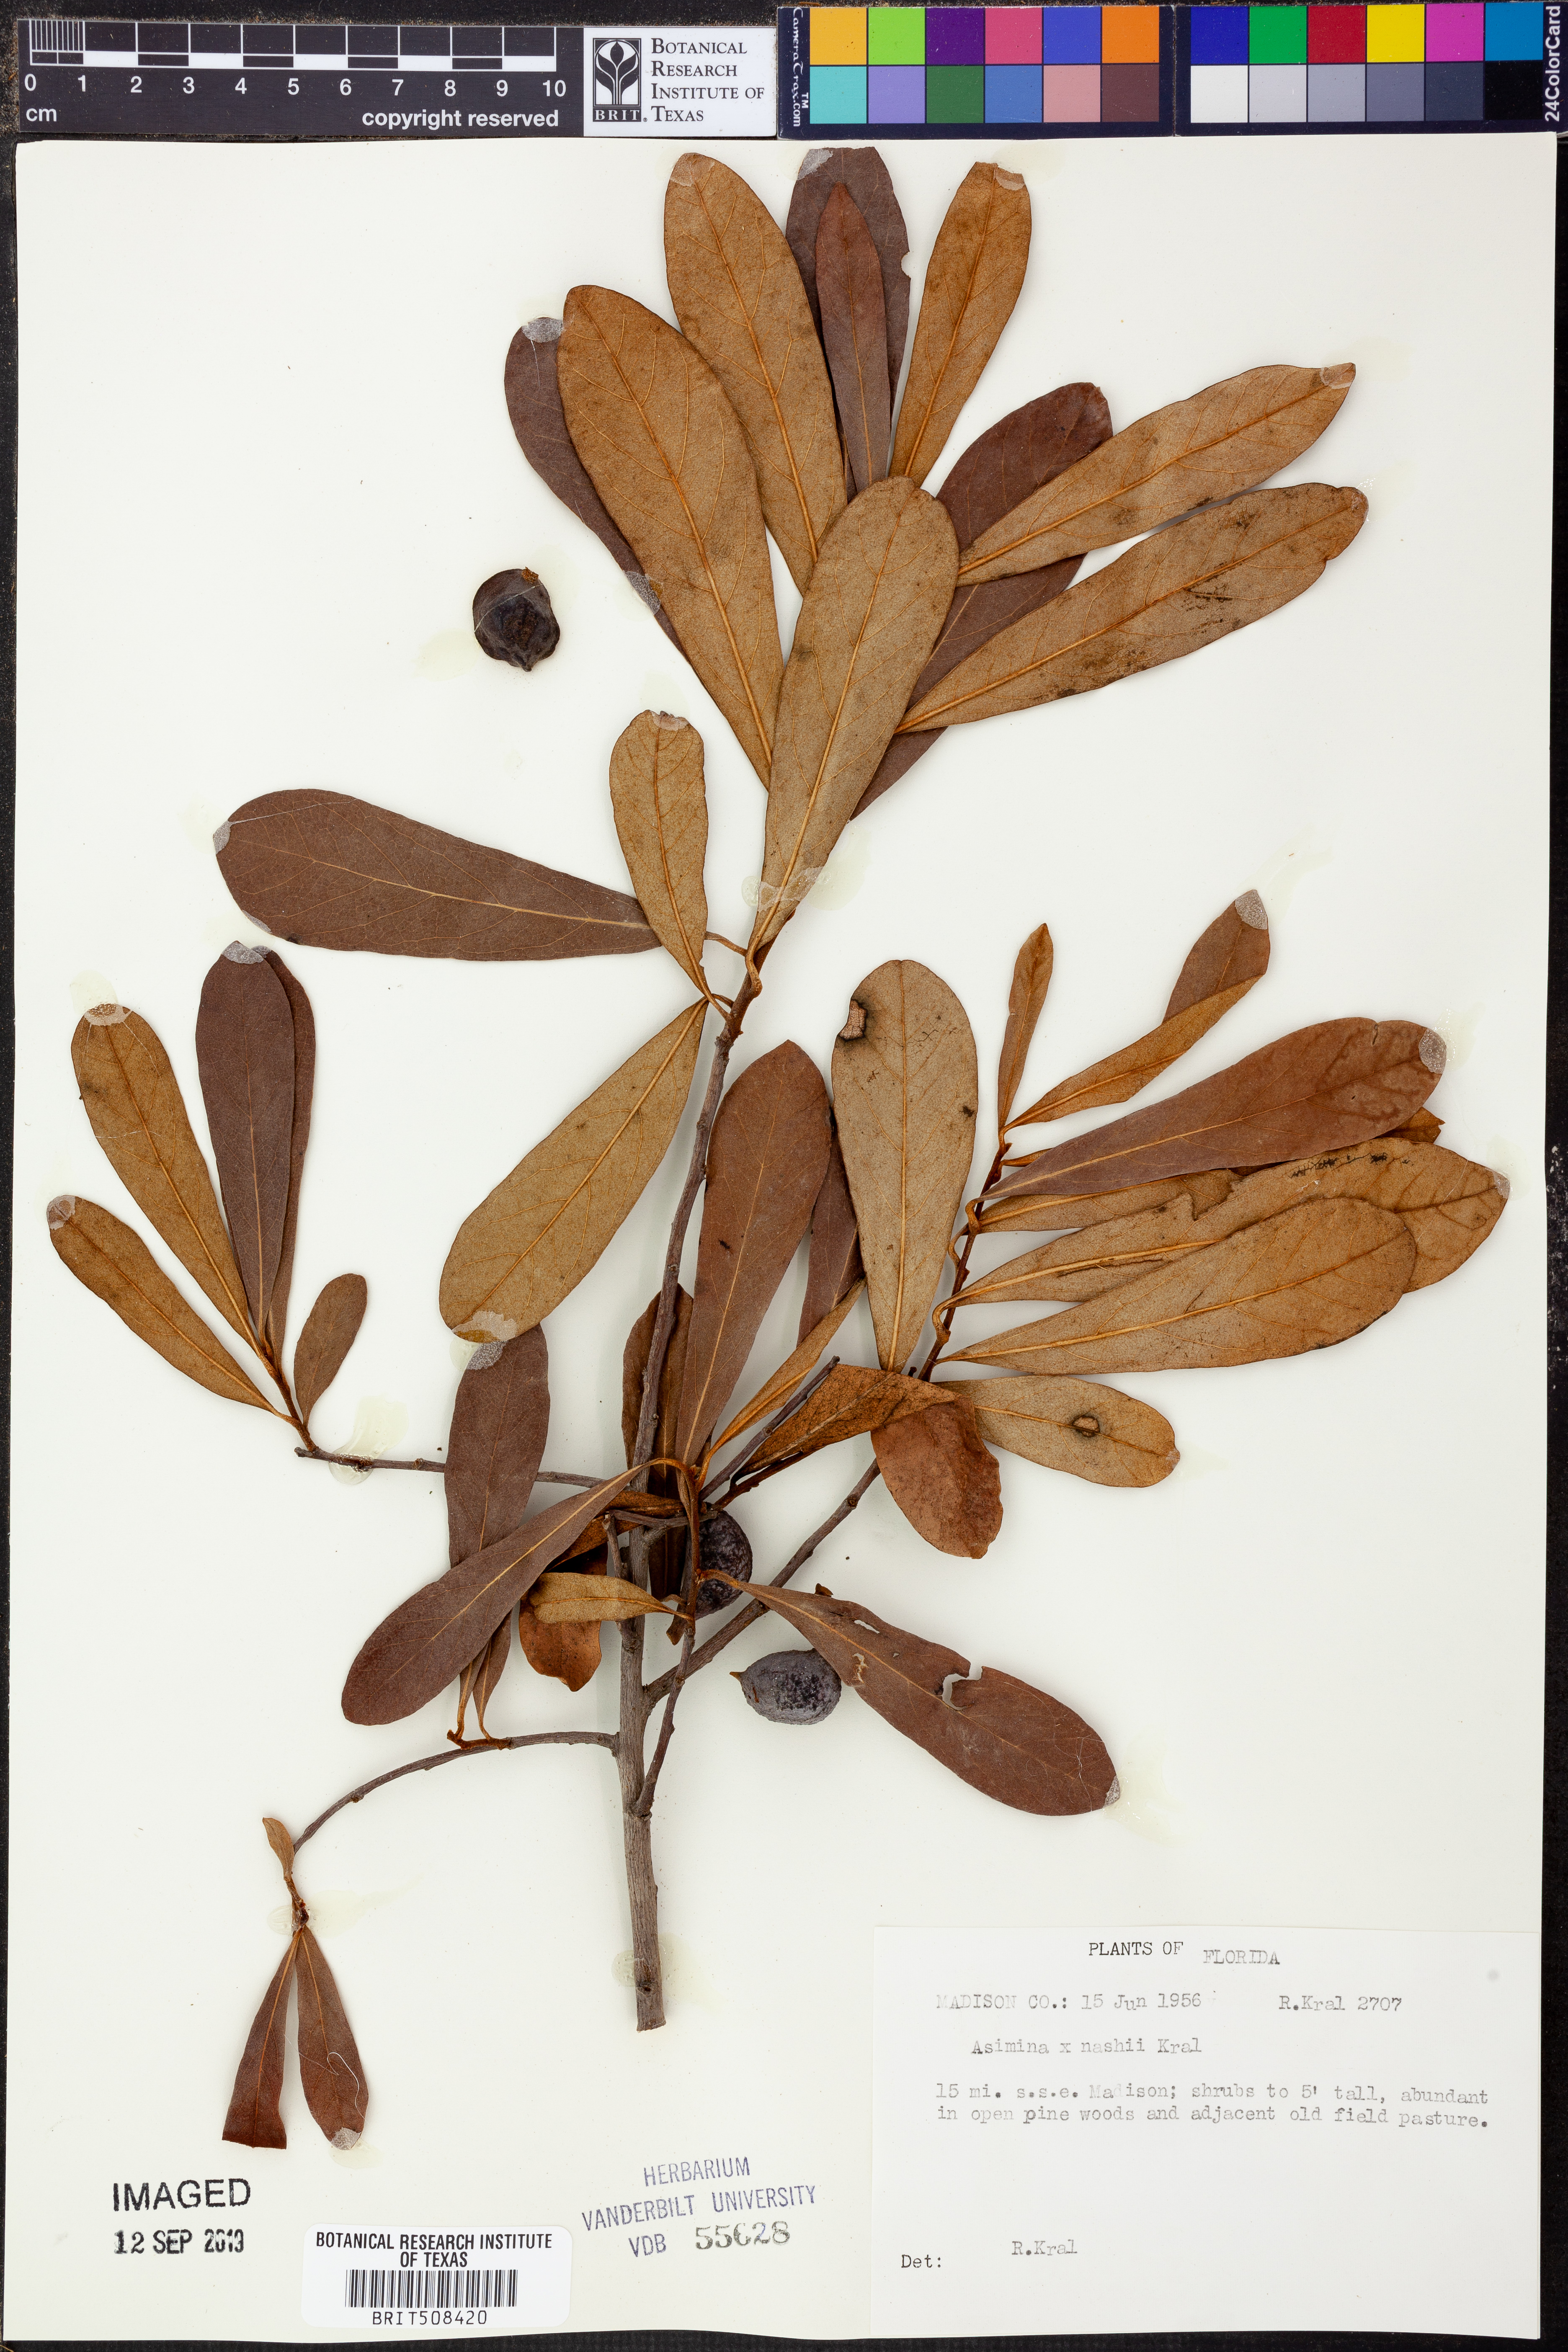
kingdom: Plantae
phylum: Tracheophyta
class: Magnoliopsida
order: Magnoliales
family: Annonaceae
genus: Asimina
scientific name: Asimina
